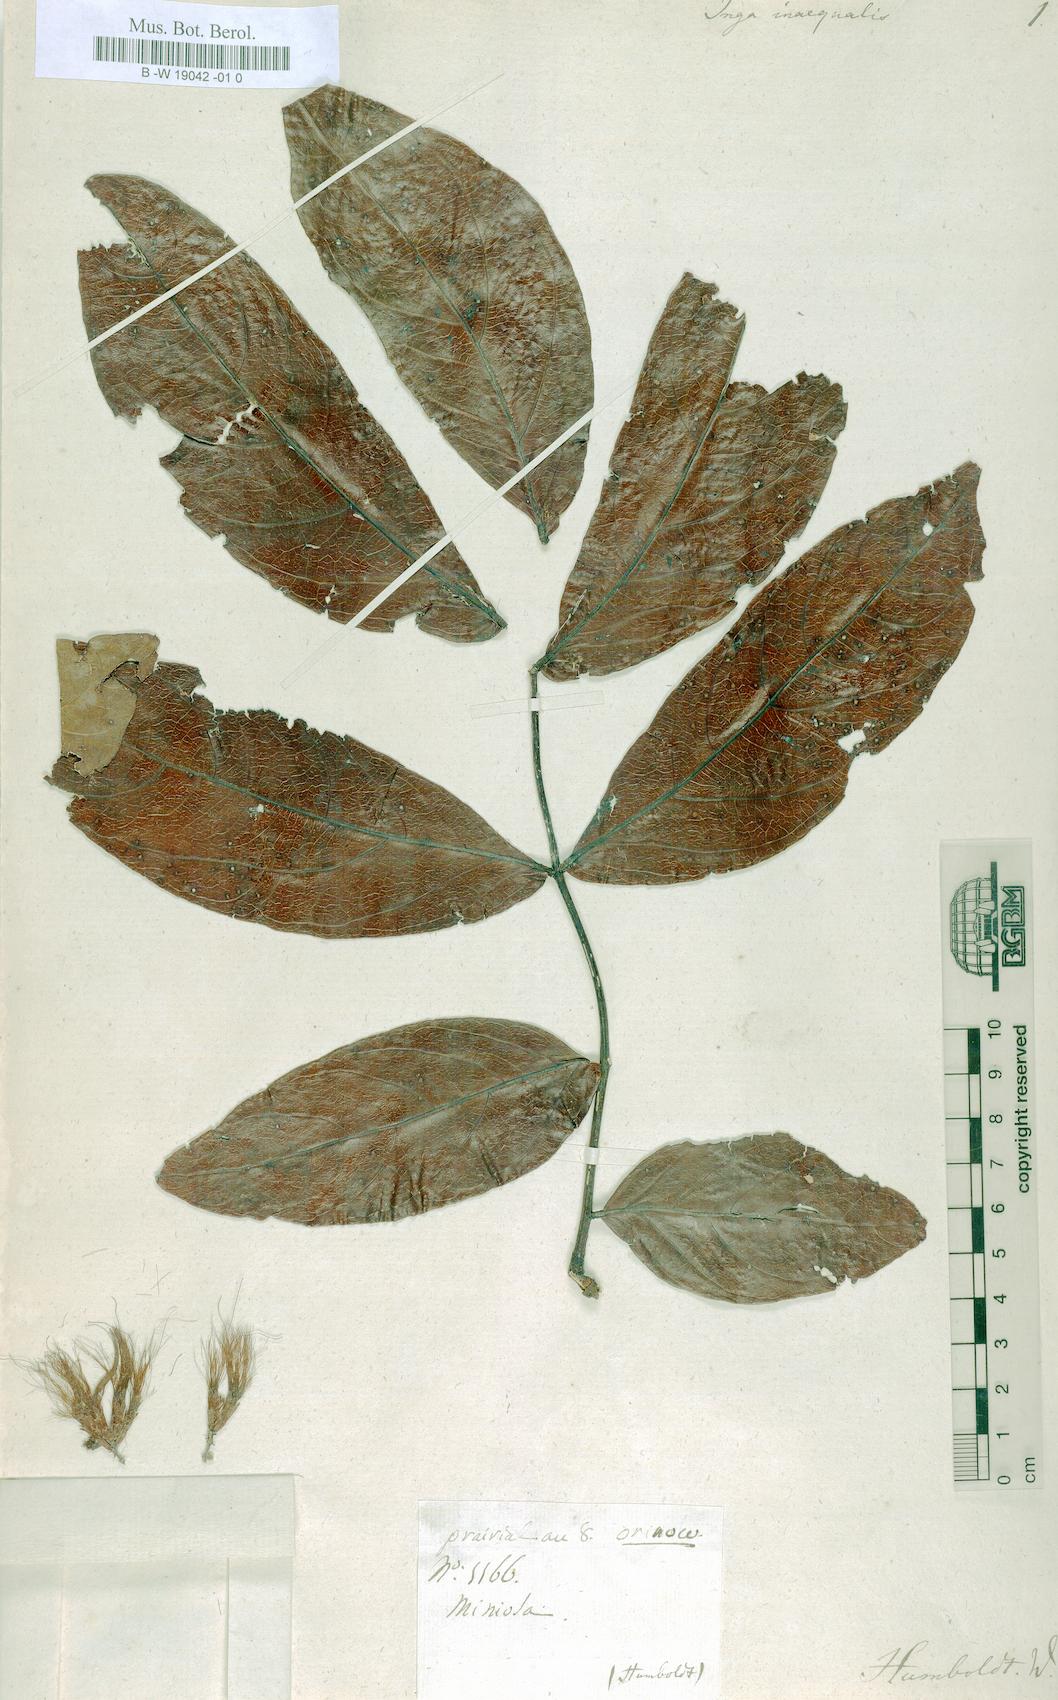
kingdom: Plantae
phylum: Tracheophyta
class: Magnoliopsida
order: Fabales
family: Fabaceae
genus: Zygia
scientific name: Zygia inaequalis
